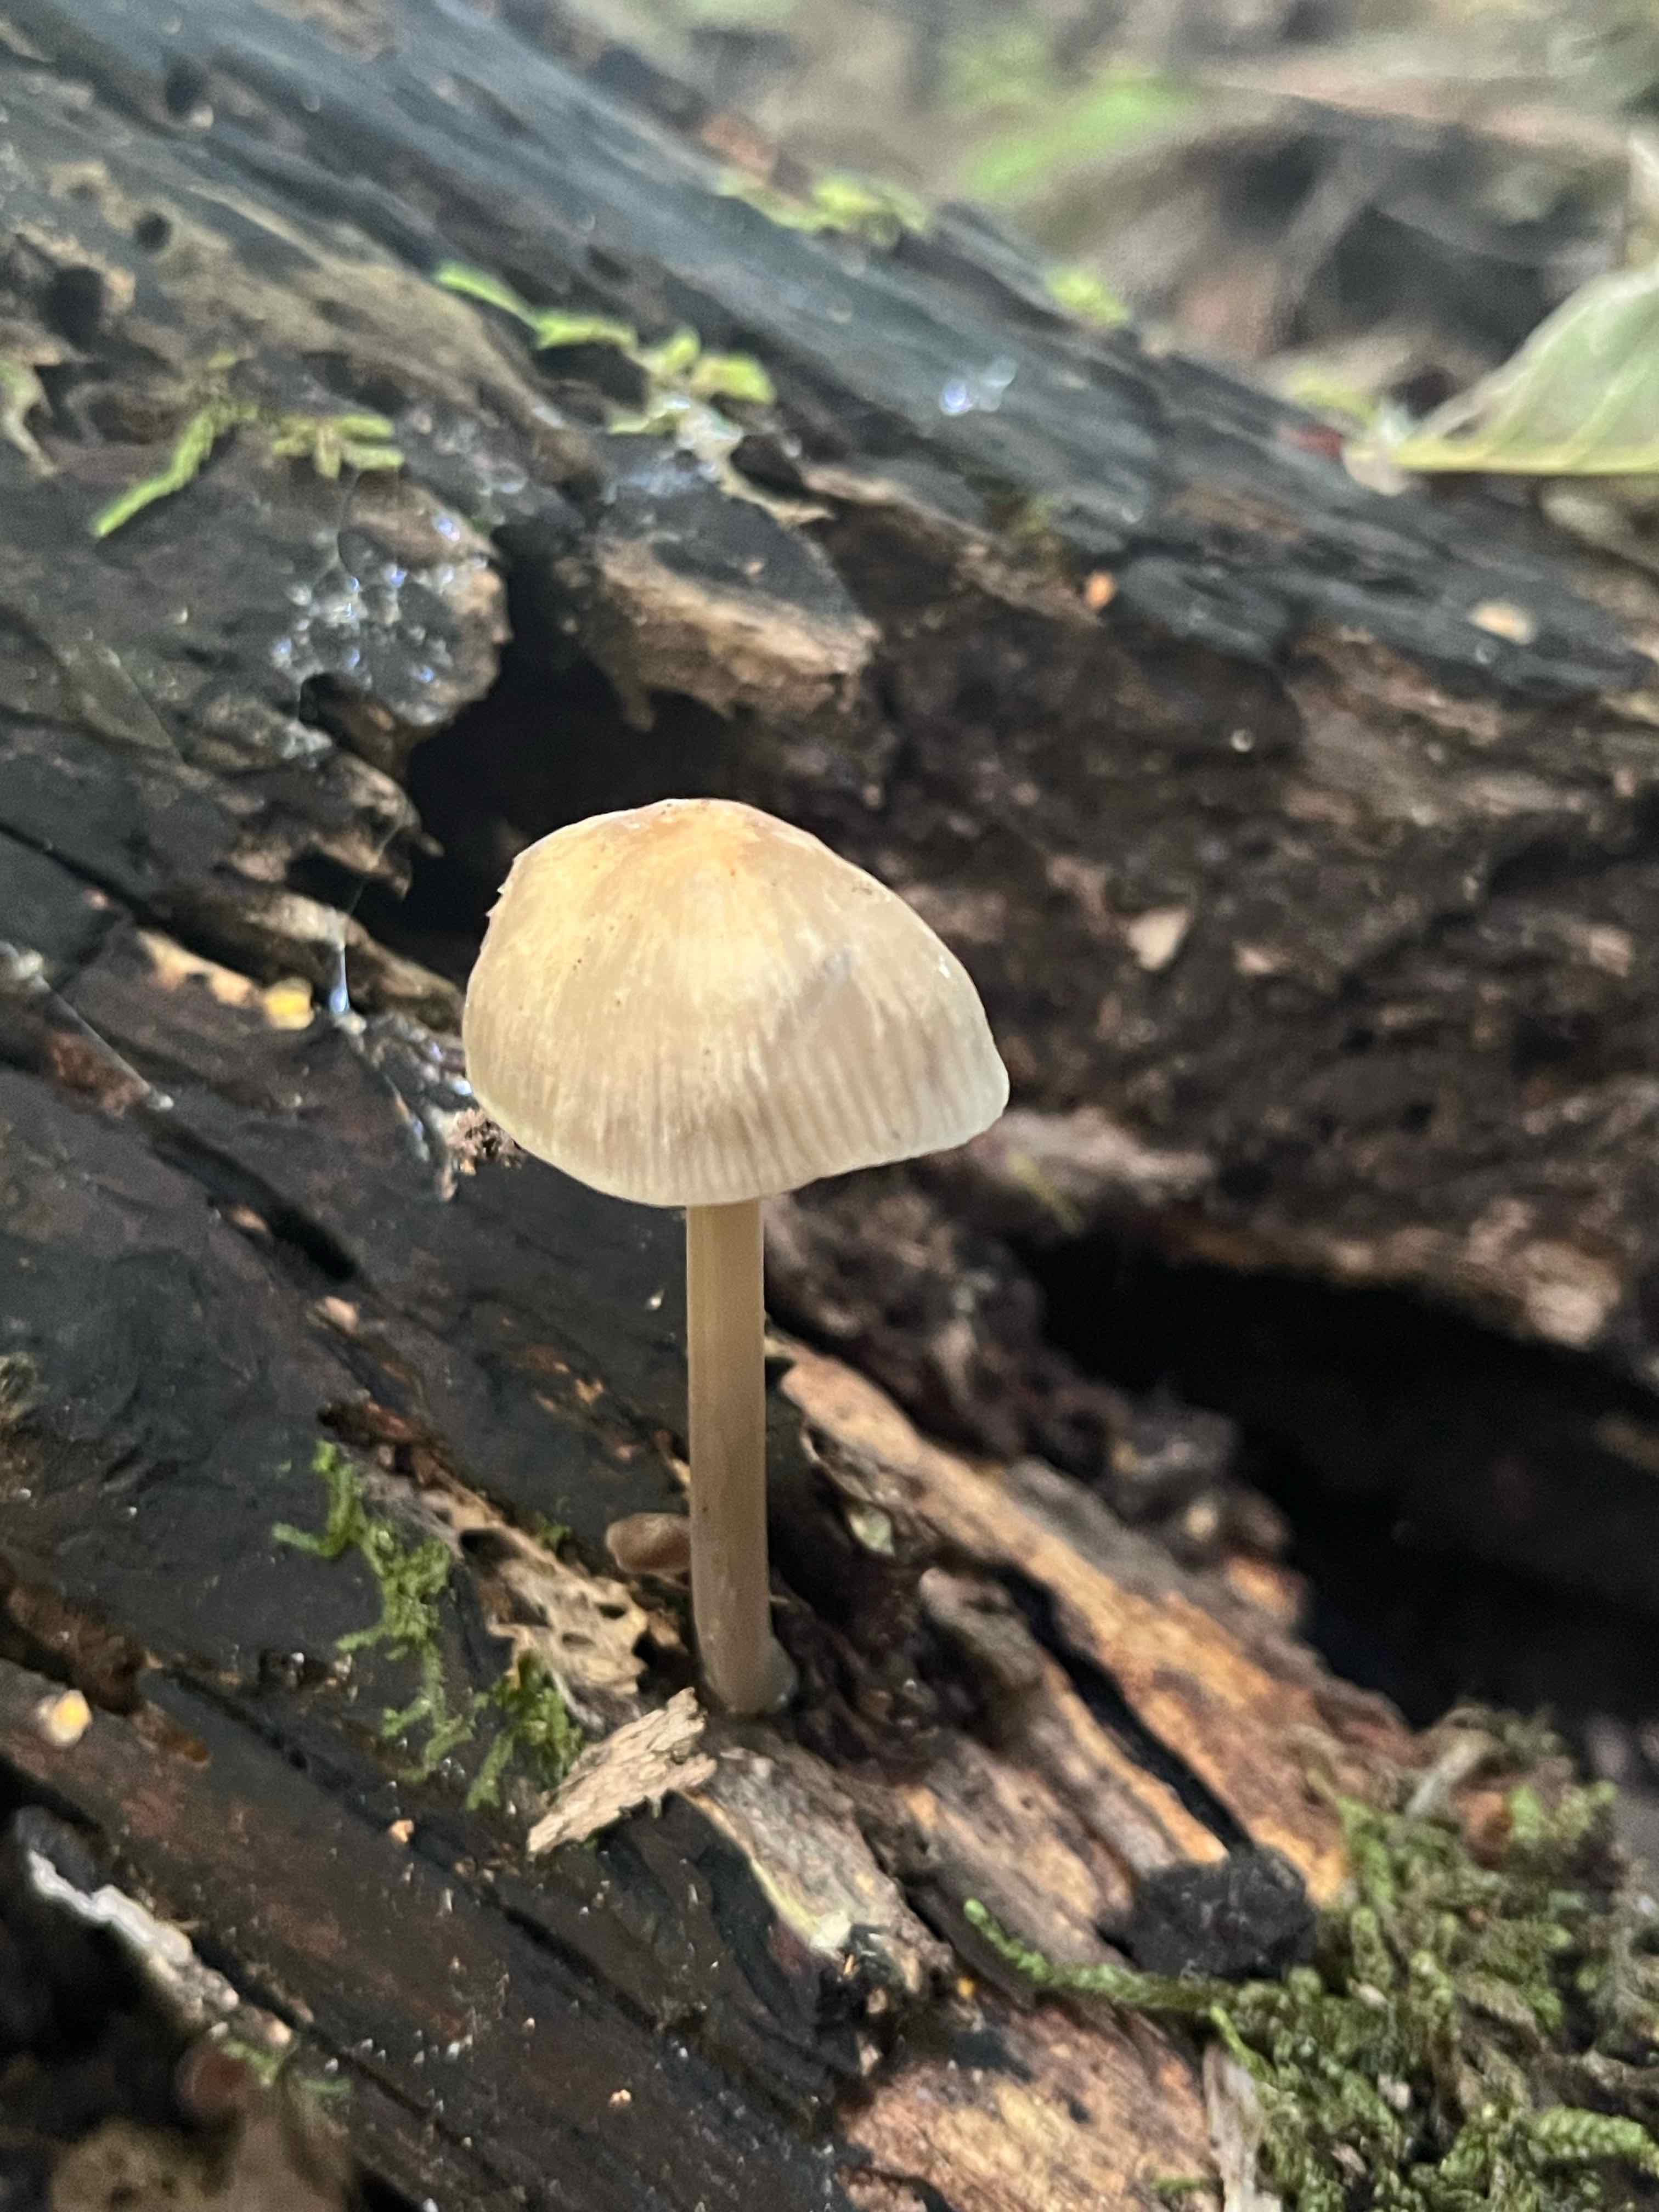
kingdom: Fungi
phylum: Basidiomycota
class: Agaricomycetes
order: Agaricales
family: Mycenaceae
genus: Mycena
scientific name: Mycena galericulata
